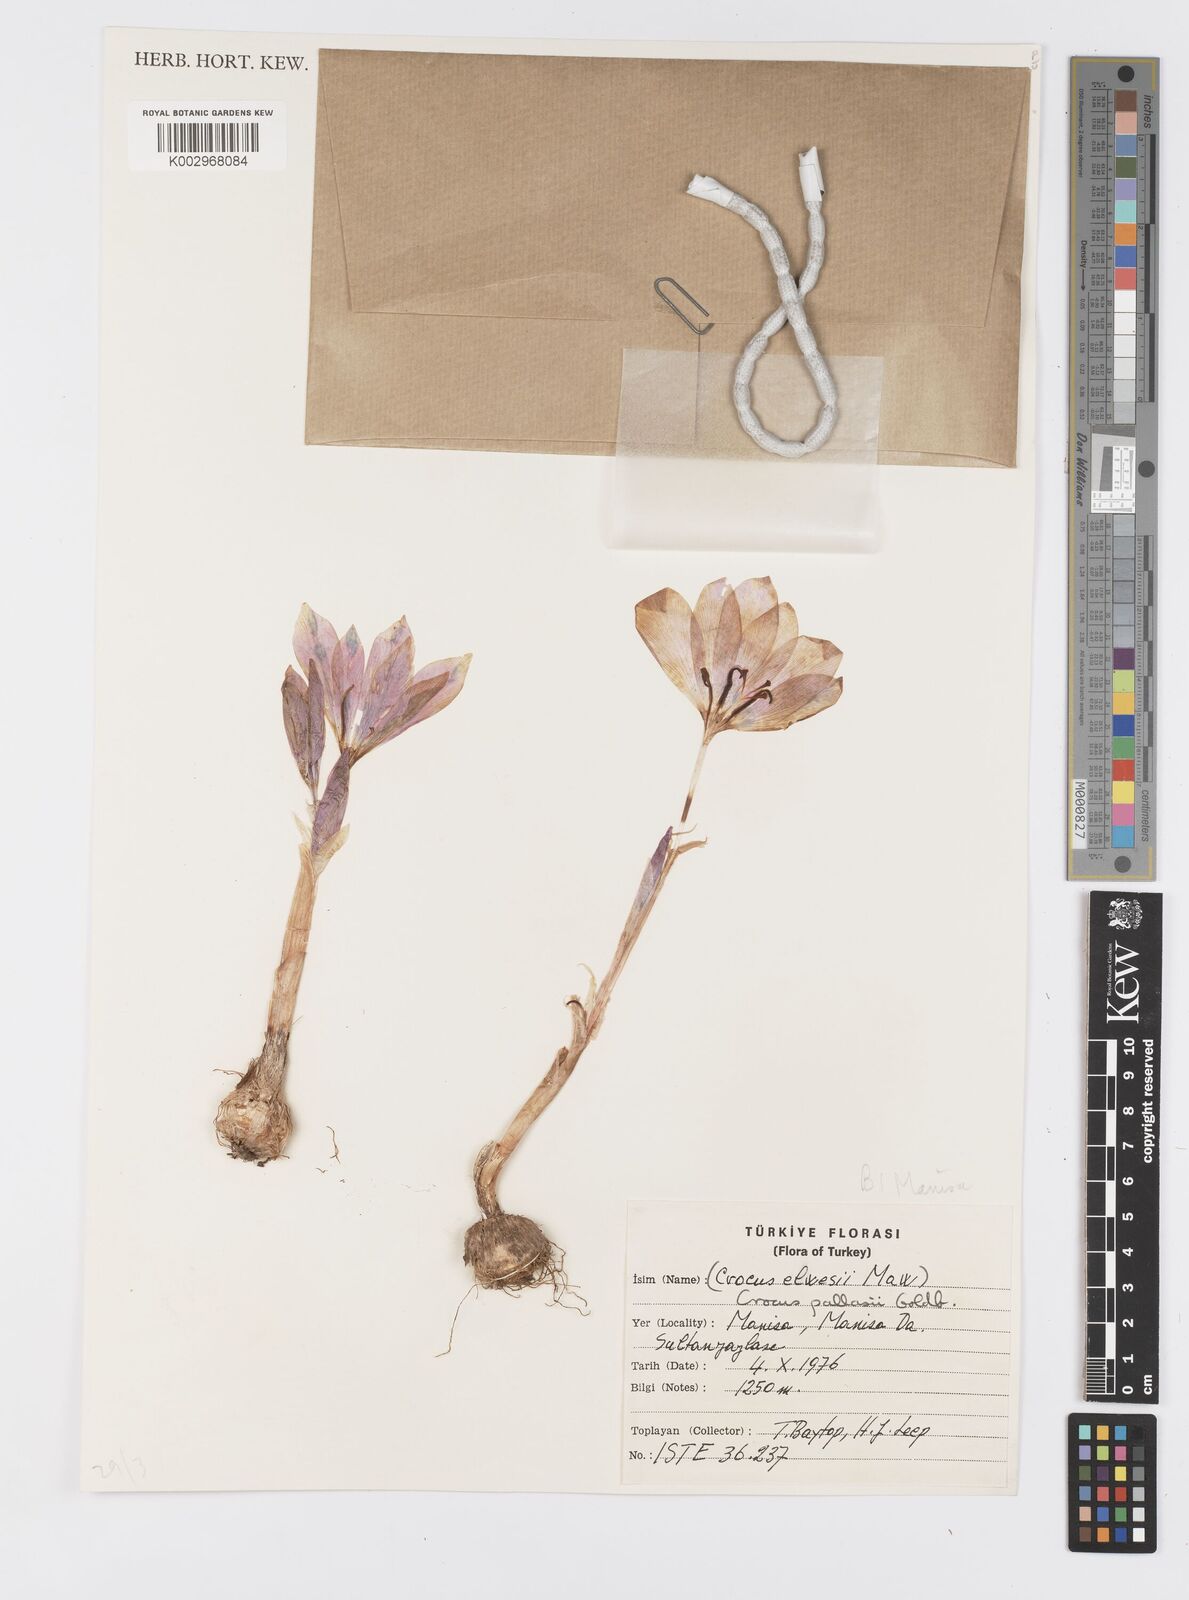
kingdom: Plantae
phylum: Tracheophyta
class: Liliopsida
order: Asparagales
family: Iridaceae
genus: Crocus
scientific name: Crocus
